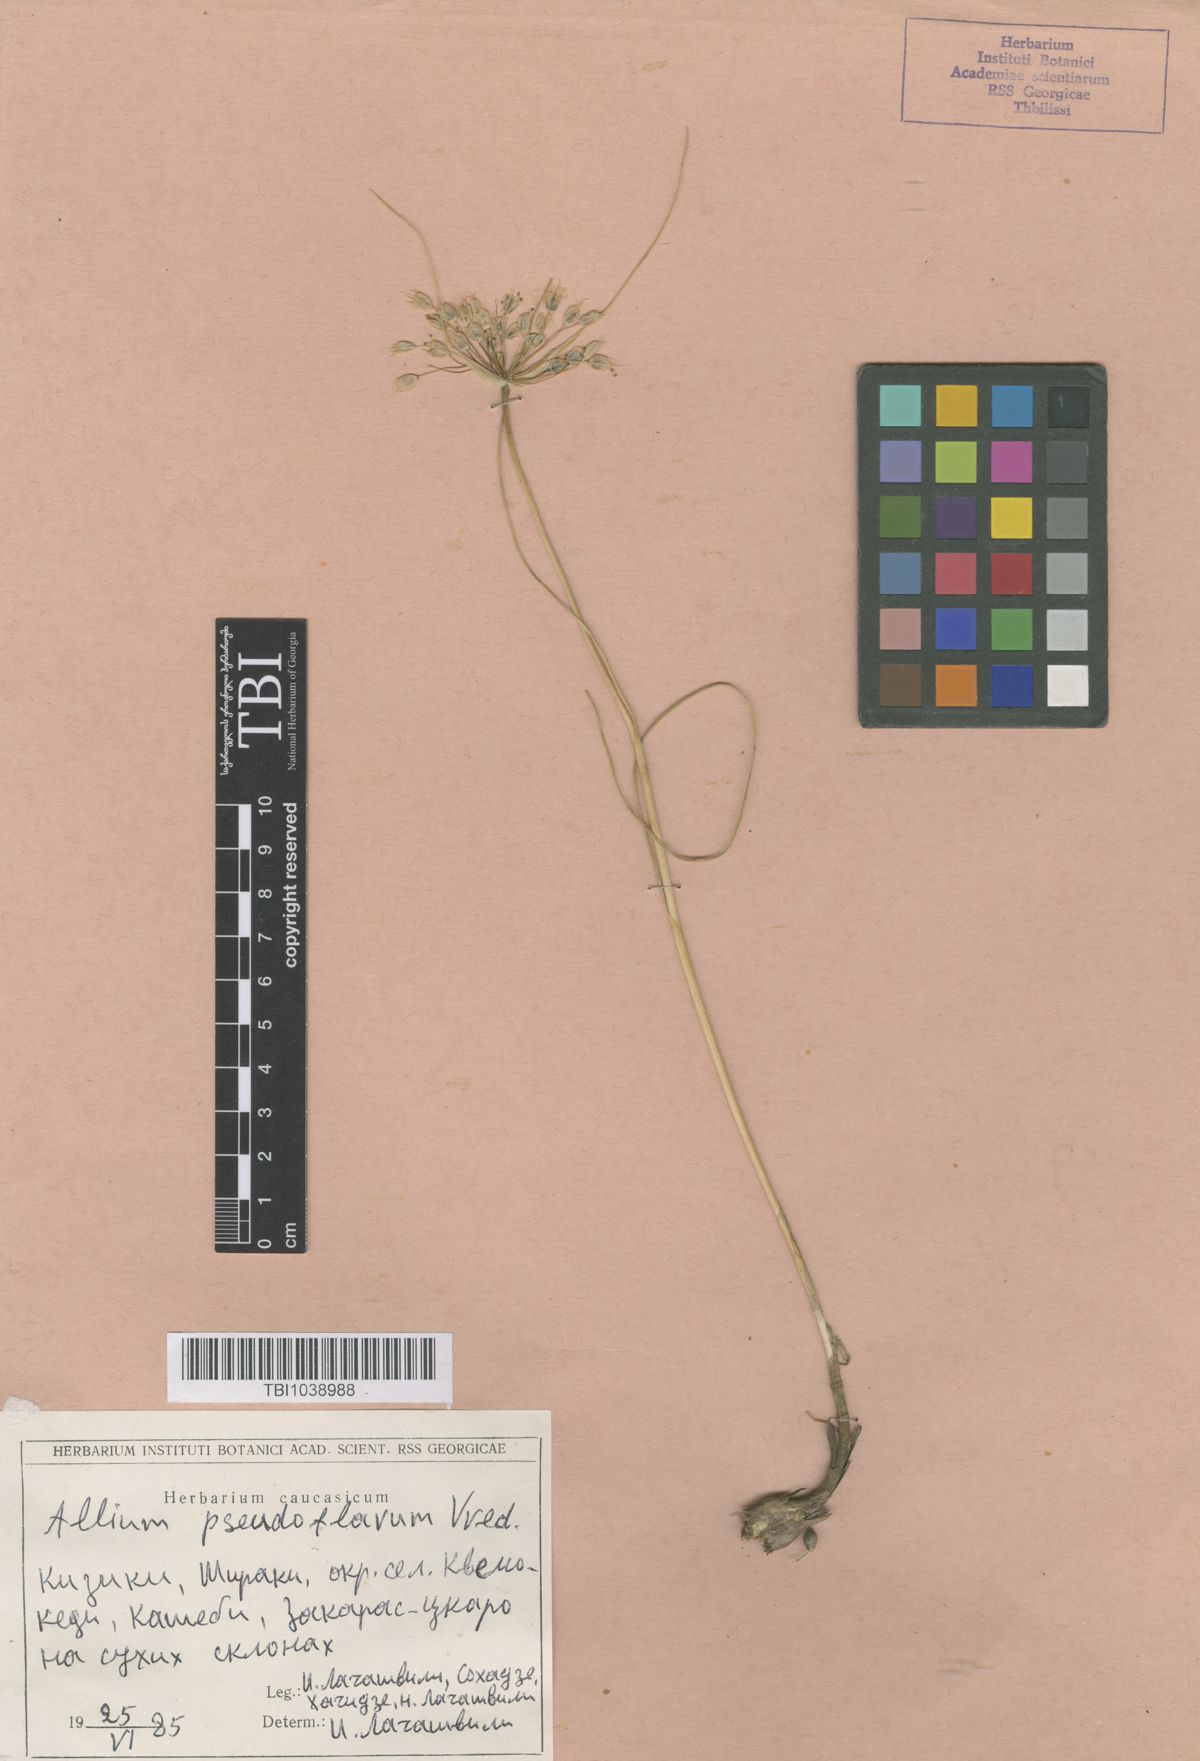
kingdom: Plantae
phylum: Tracheophyta
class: Liliopsida
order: Asparagales
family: Amaryllidaceae
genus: Allium
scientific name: Allium pseudoflavum
